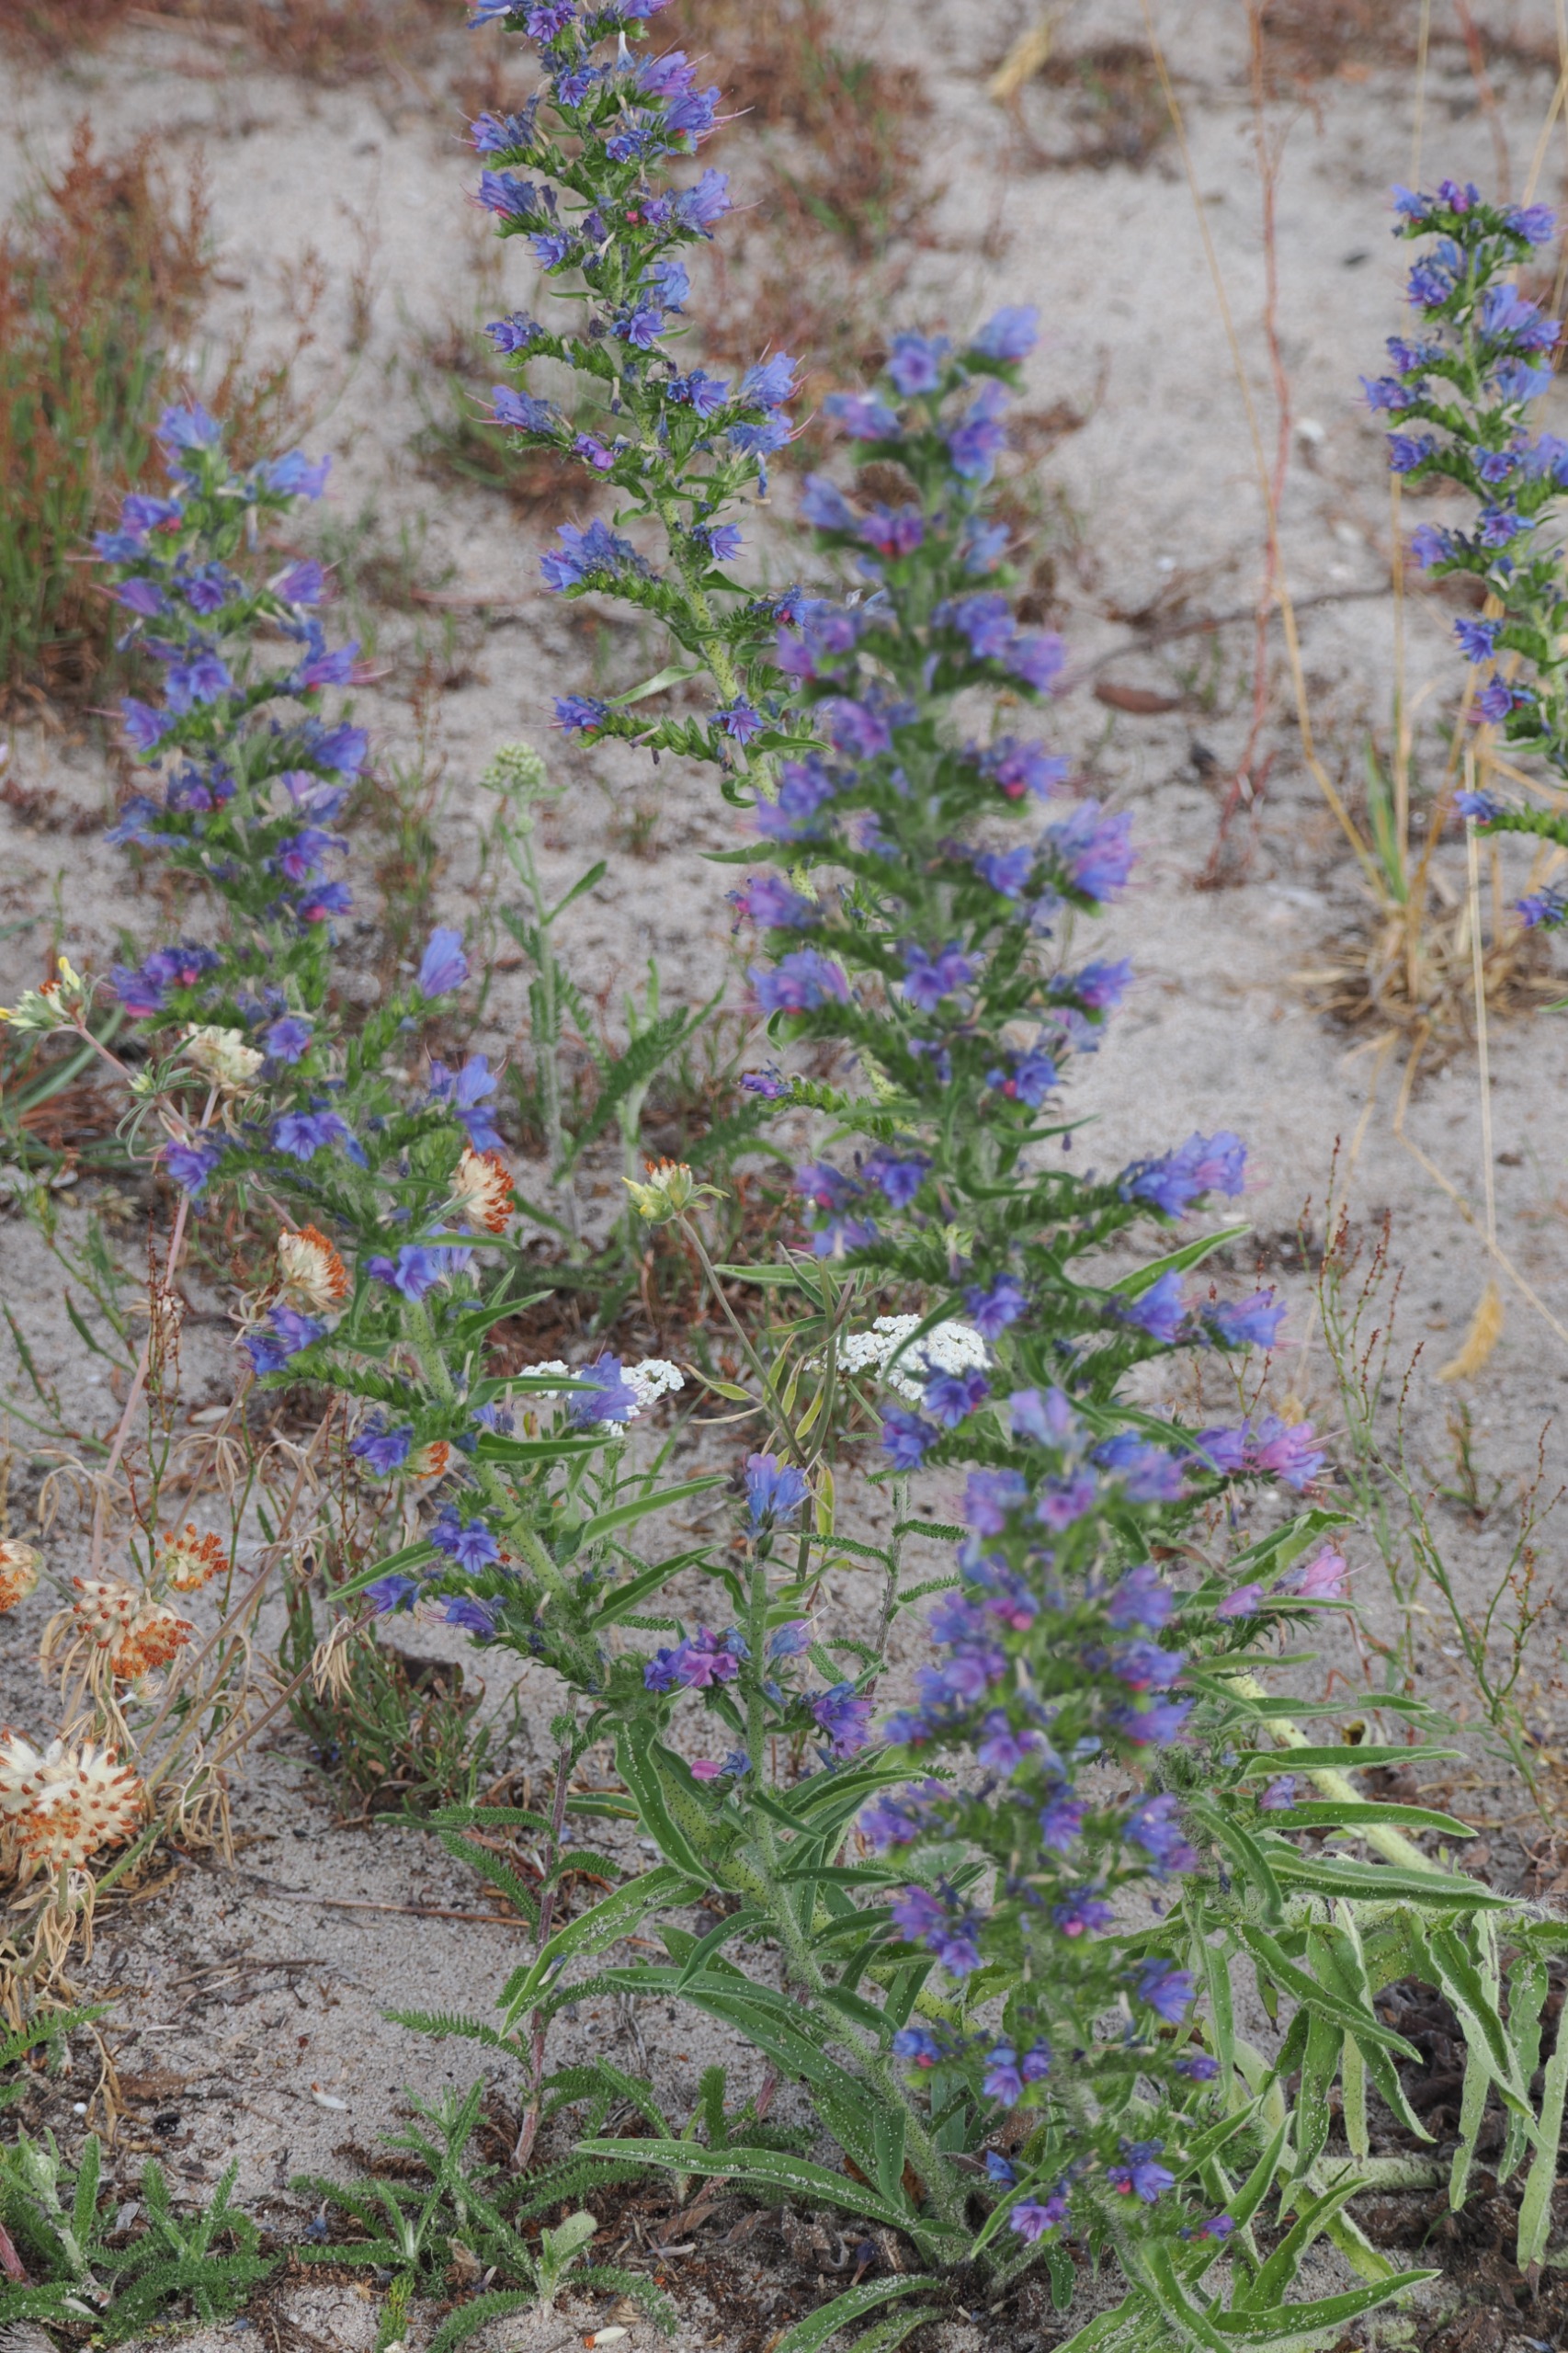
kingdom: Plantae
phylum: Tracheophyta
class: Magnoliopsida
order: Boraginales
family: Boraginaceae
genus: Echium
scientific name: Echium vulgare
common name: Slangehoved
